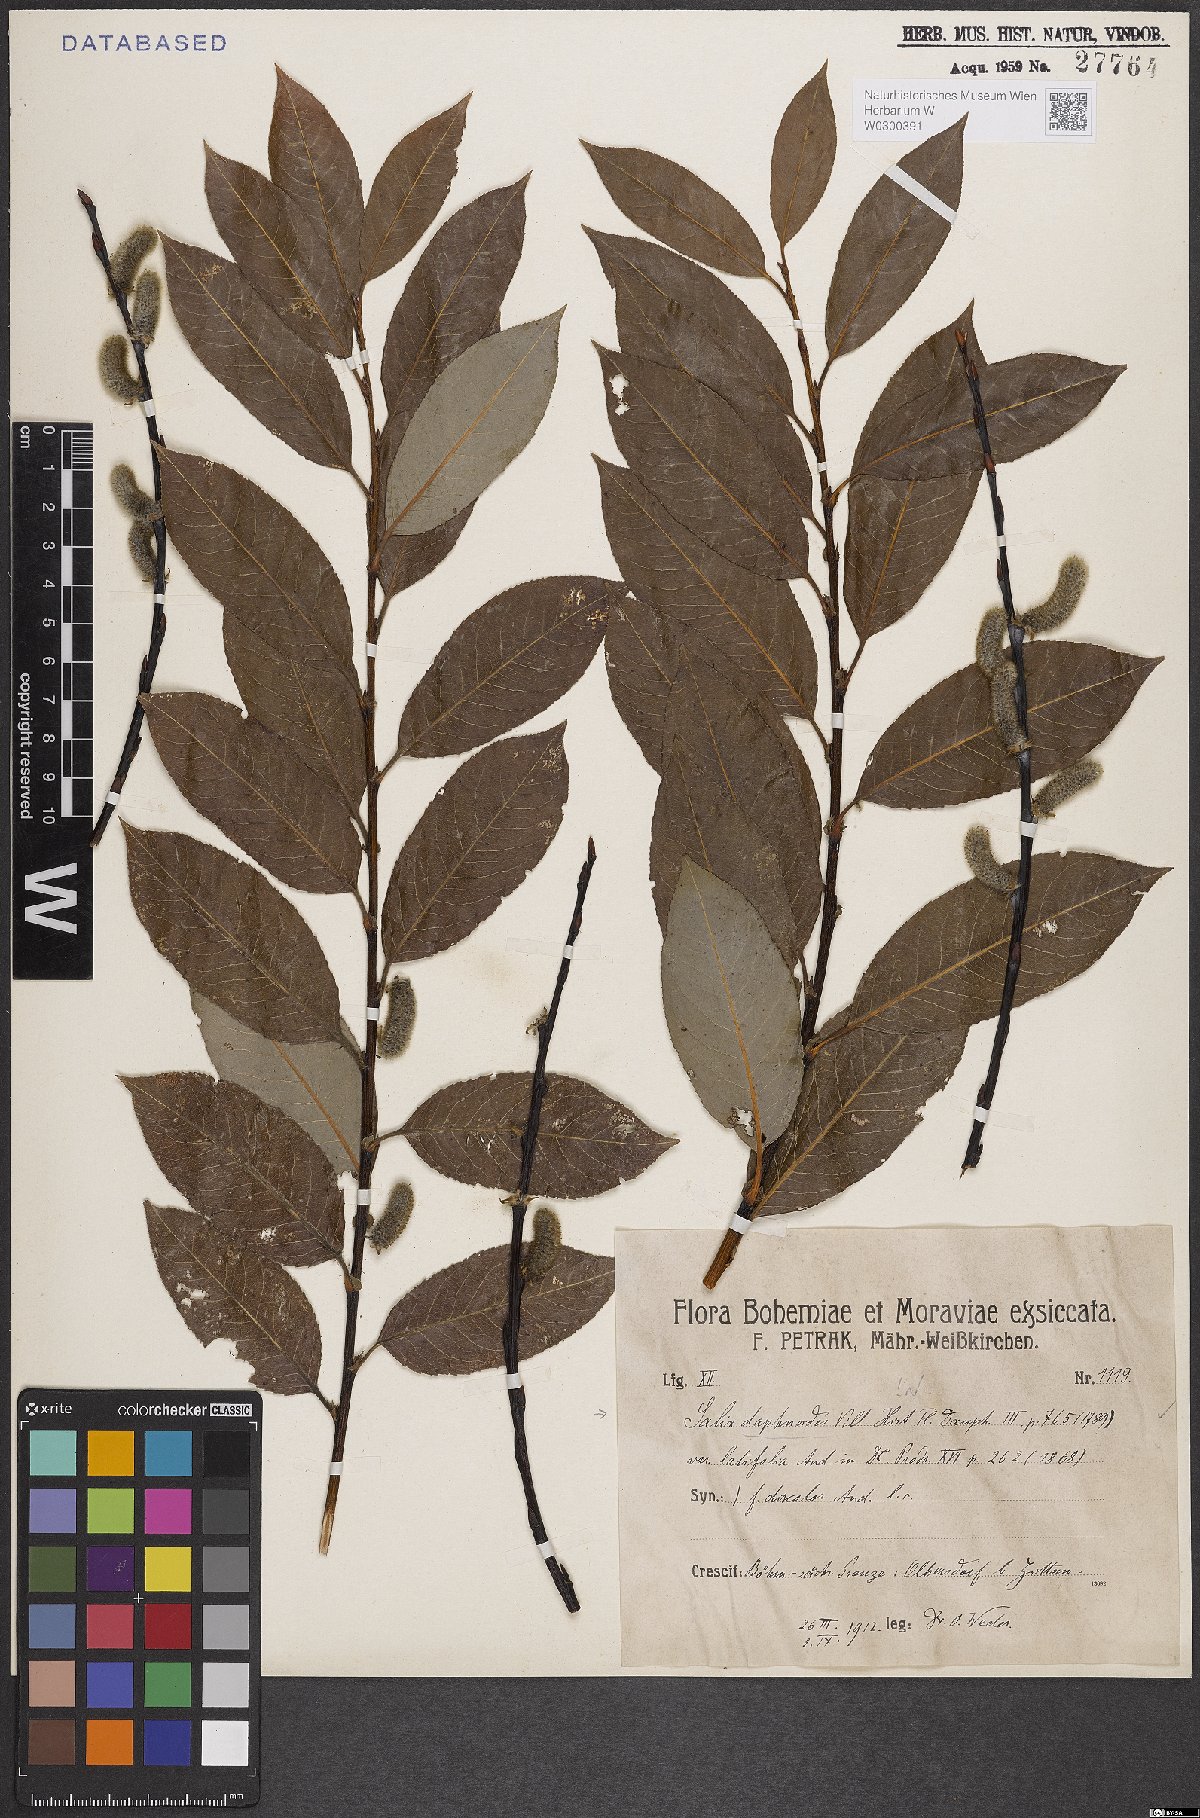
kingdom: Plantae
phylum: Tracheophyta
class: Magnoliopsida
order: Malpighiales
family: Salicaceae
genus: Salix
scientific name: Salix daphnoides
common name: European violet-willow
